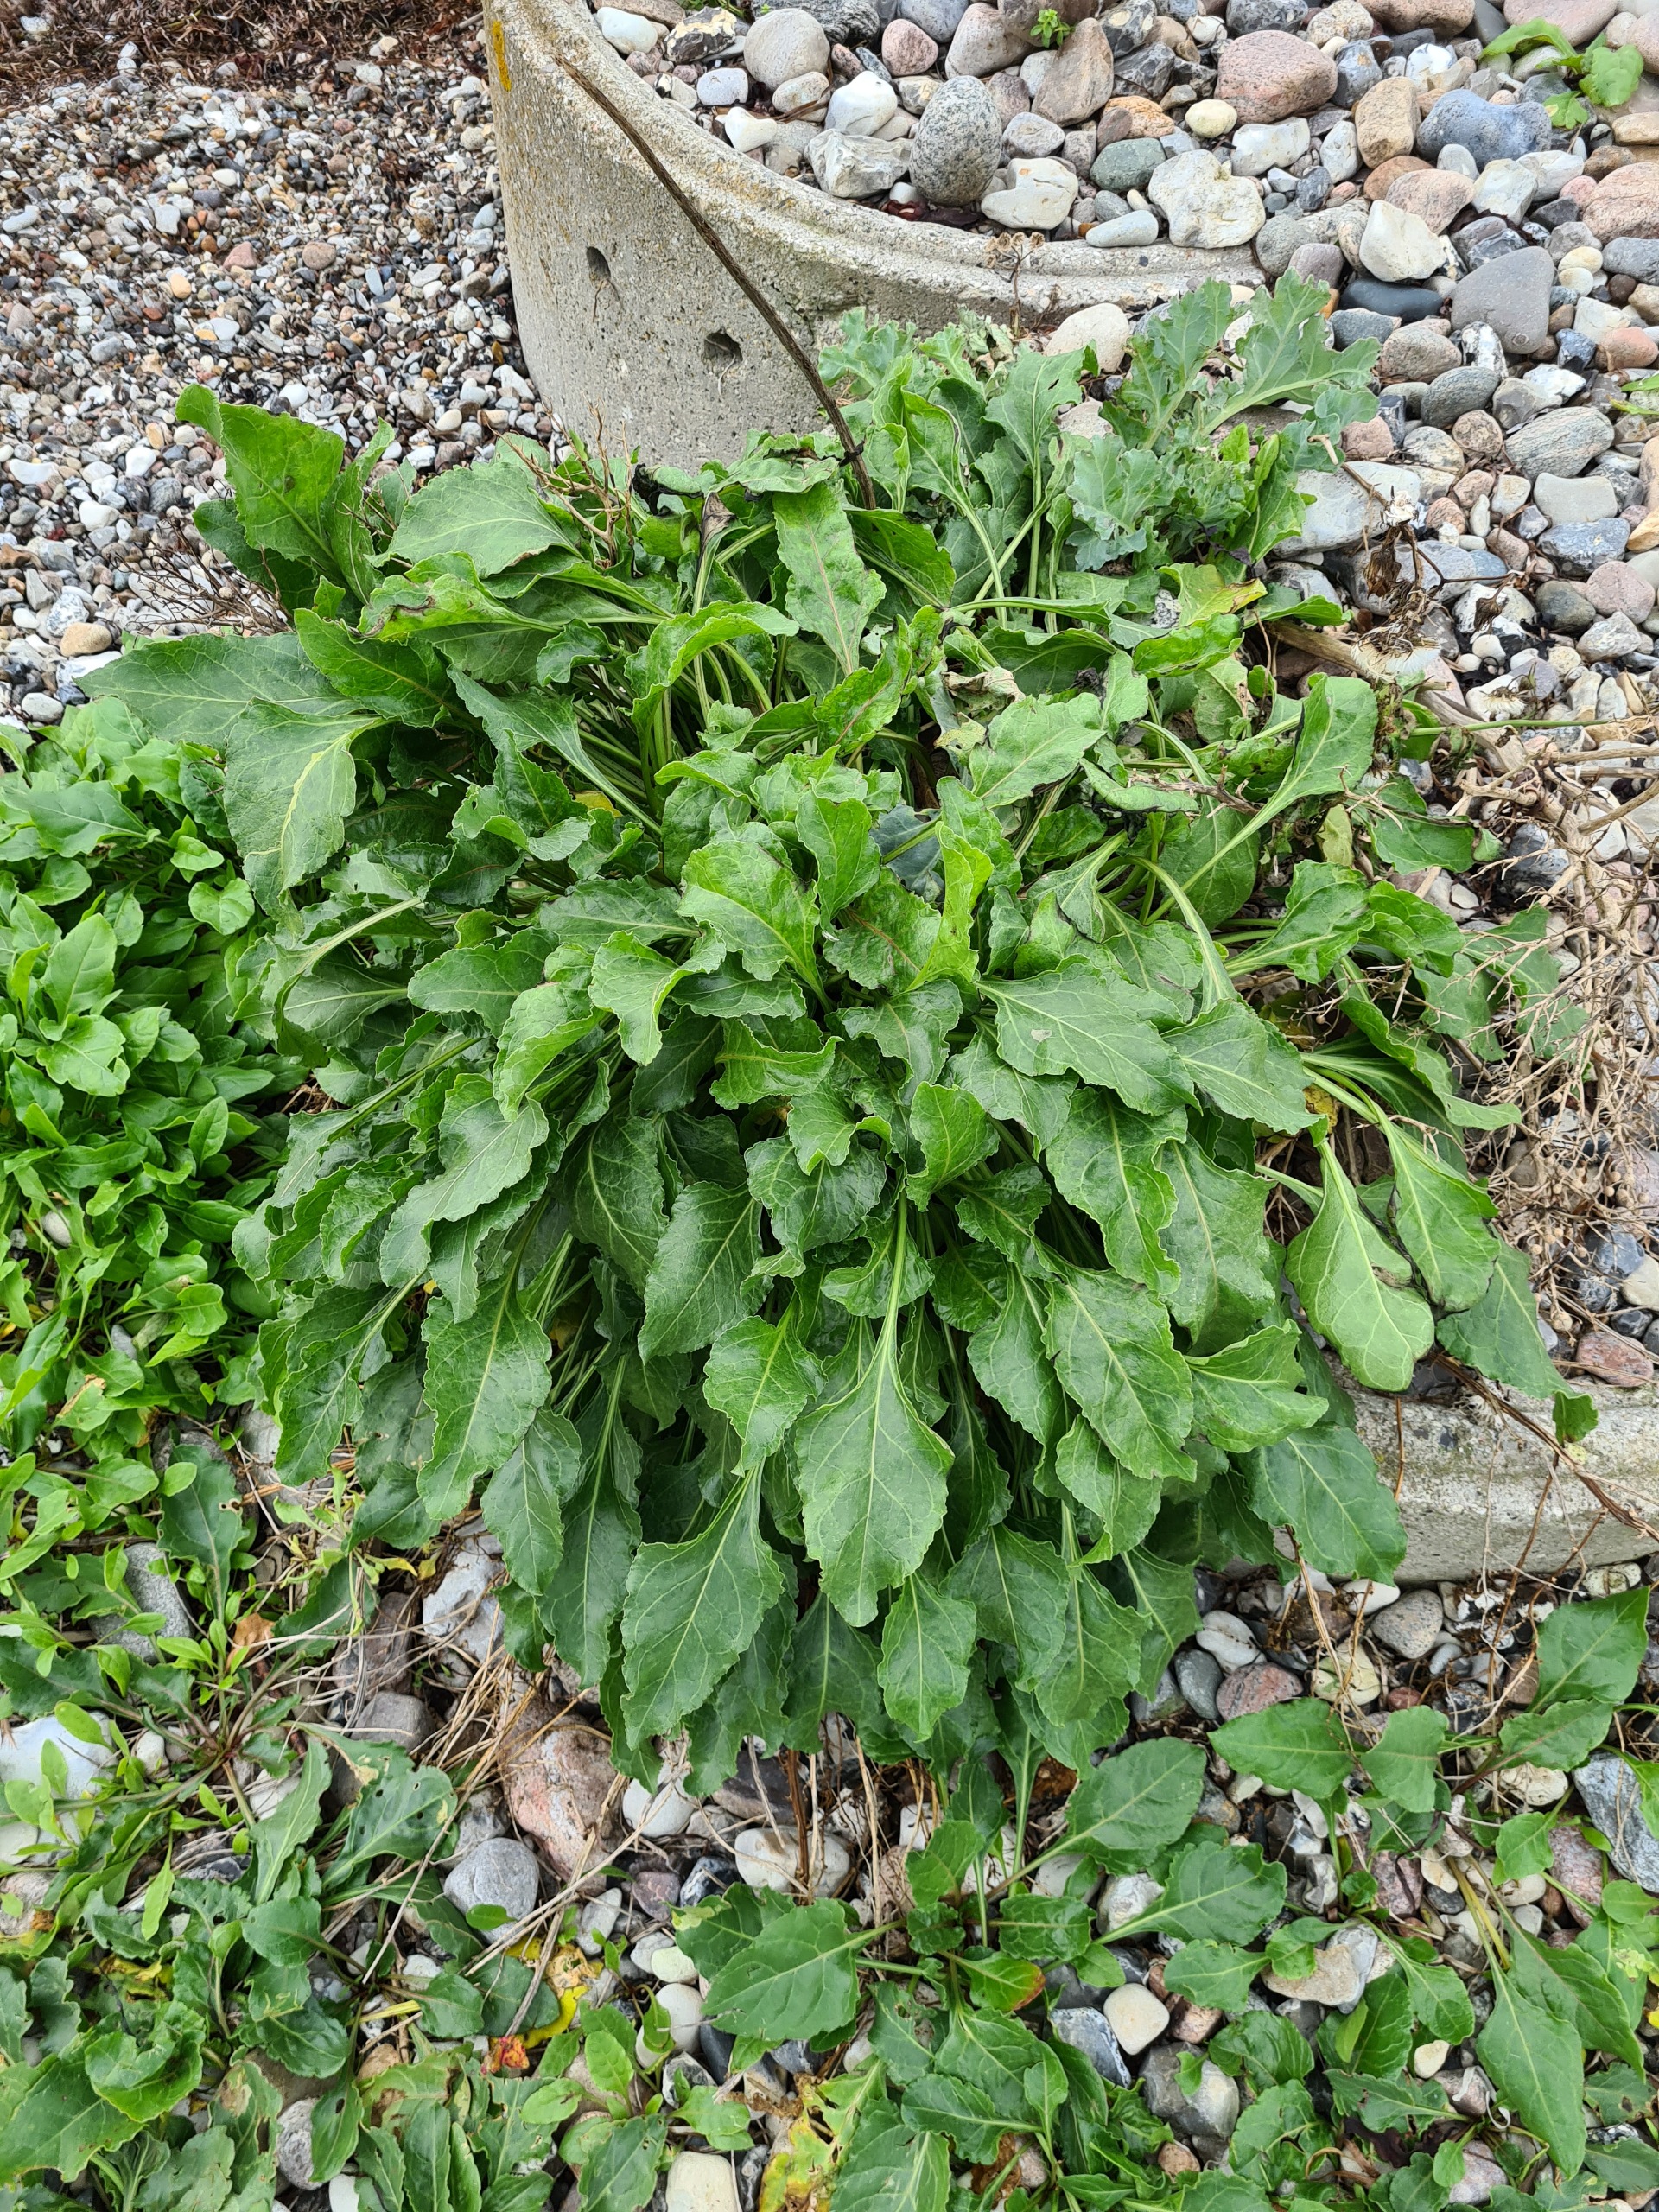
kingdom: Plantae
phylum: Tracheophyta
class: Magnoliopsida
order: Caryophyllales
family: Amaranthaceae
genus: Beta
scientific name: Beta maritima
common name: Strand-bede
